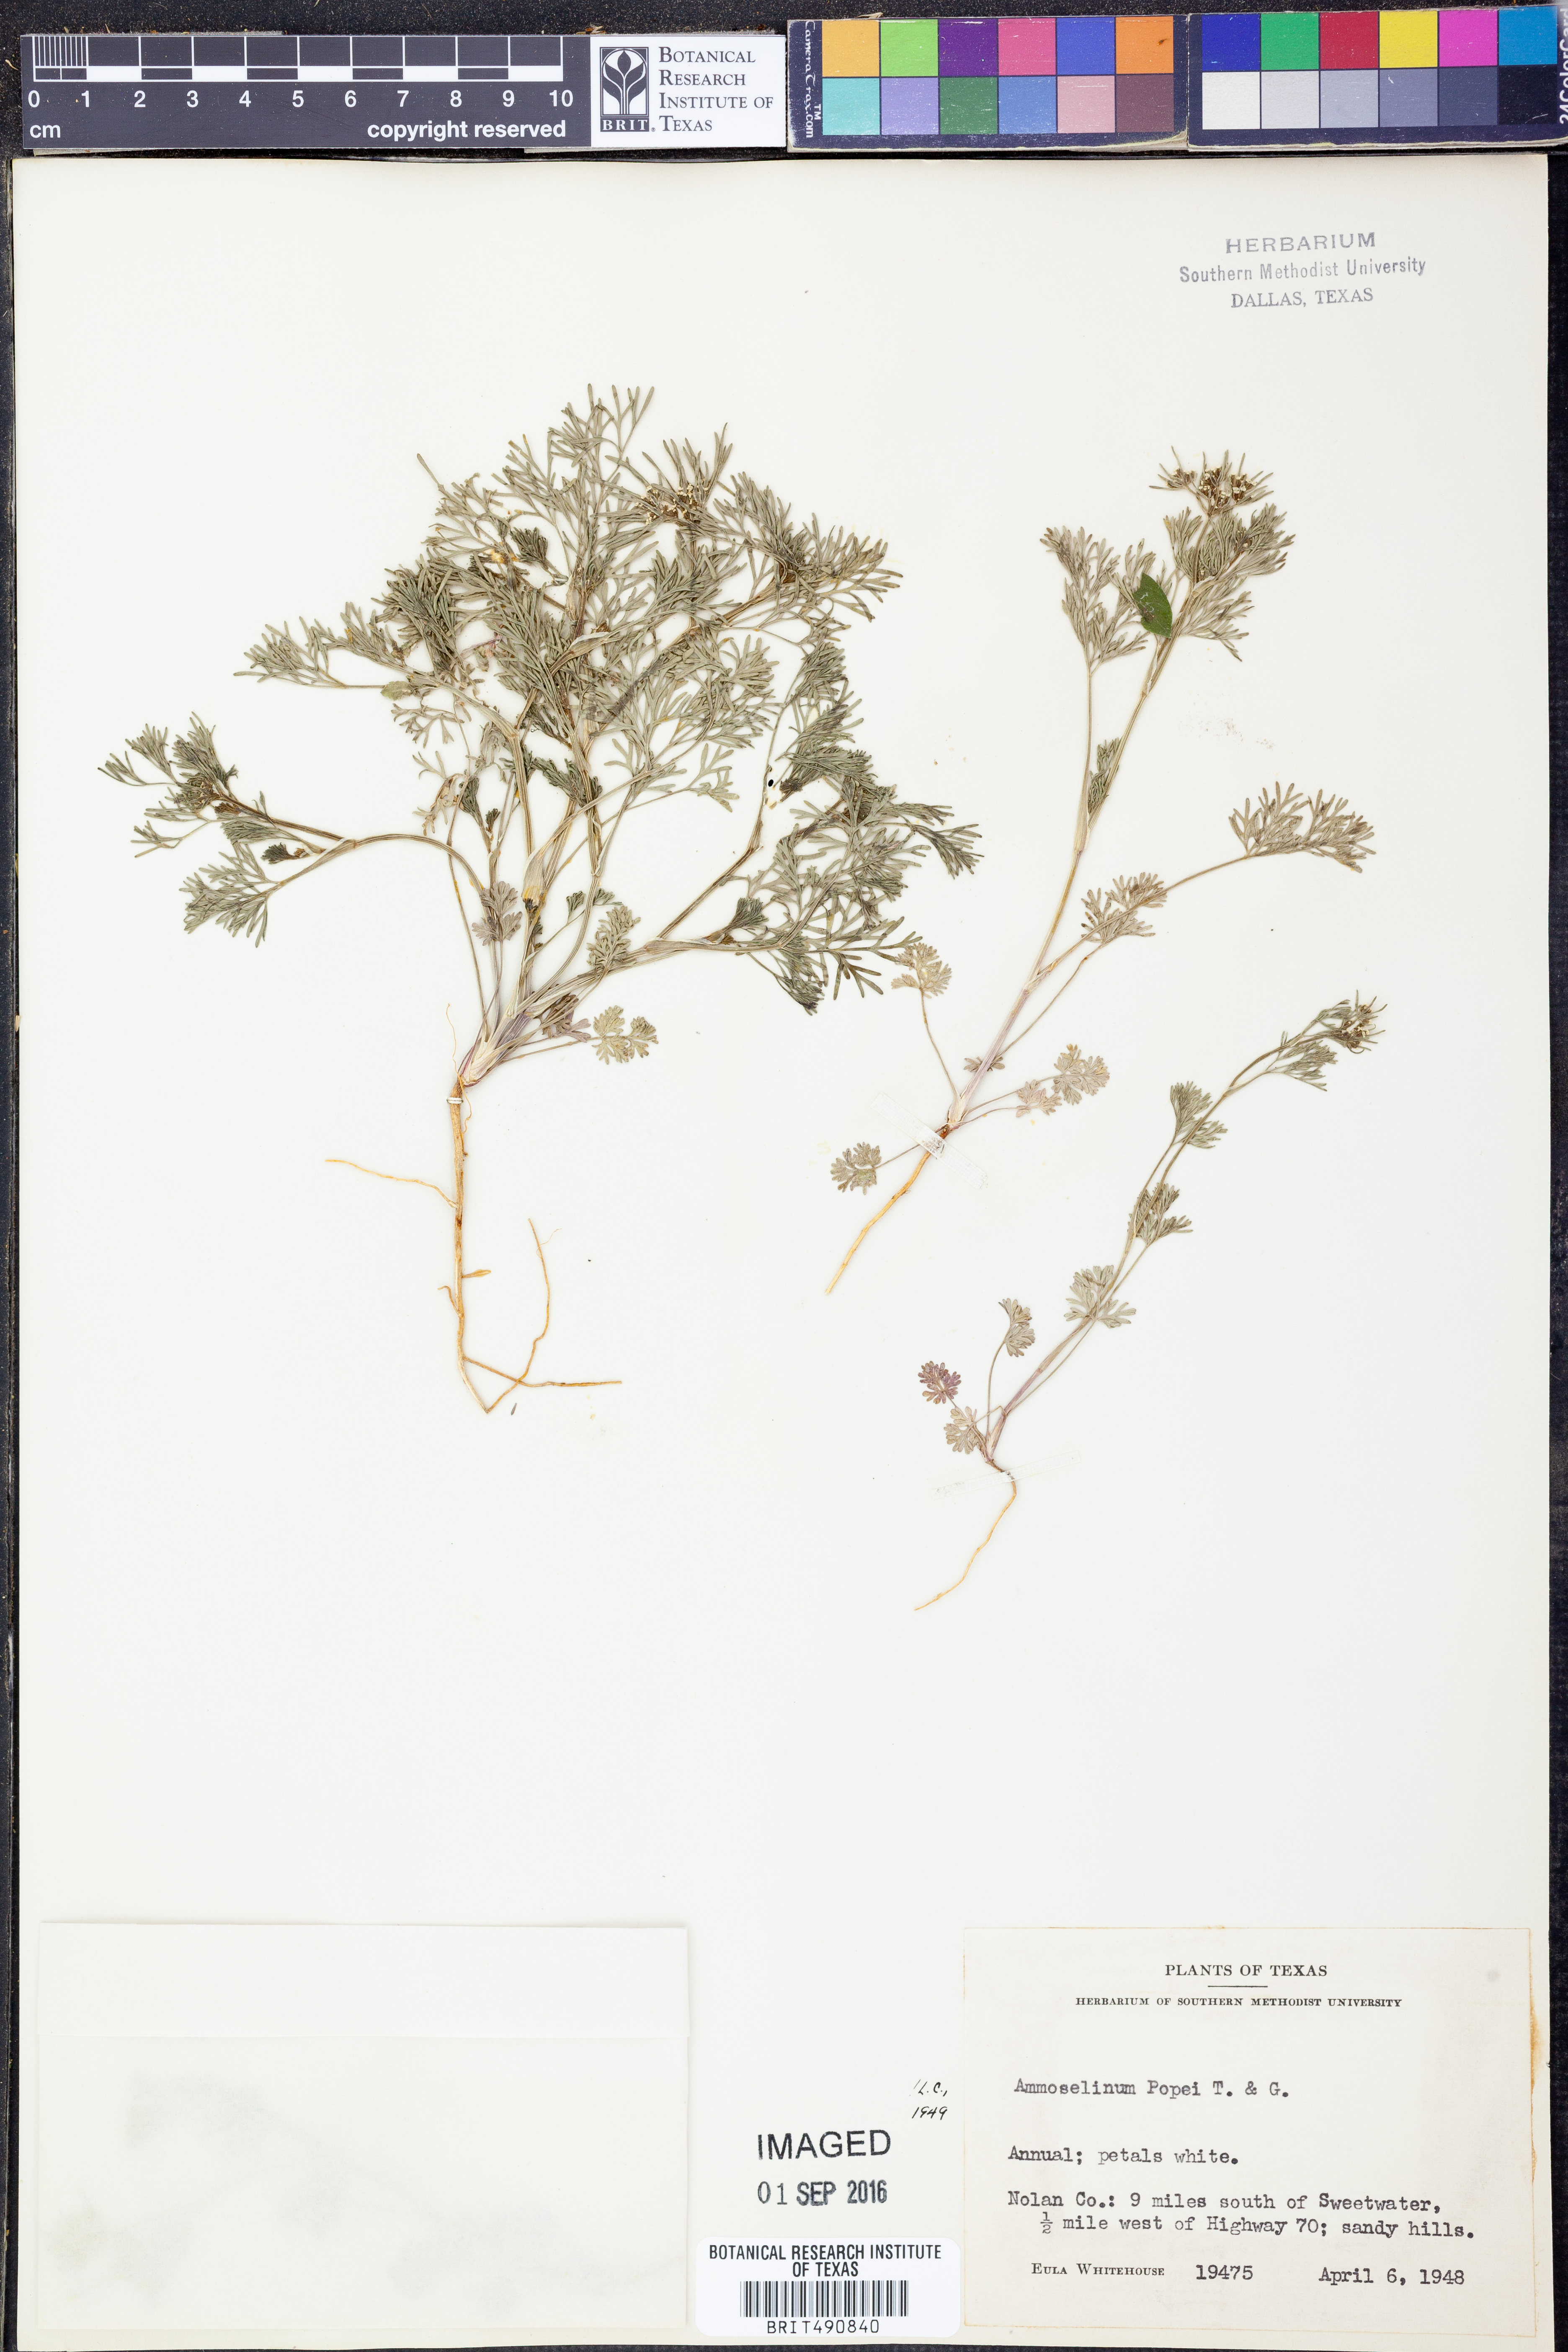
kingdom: Plantae
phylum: Tracheophyta
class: Magnoliopsida
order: Apiales
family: Apiaceae
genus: Ammoselinum
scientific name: Ammoselinum popei
